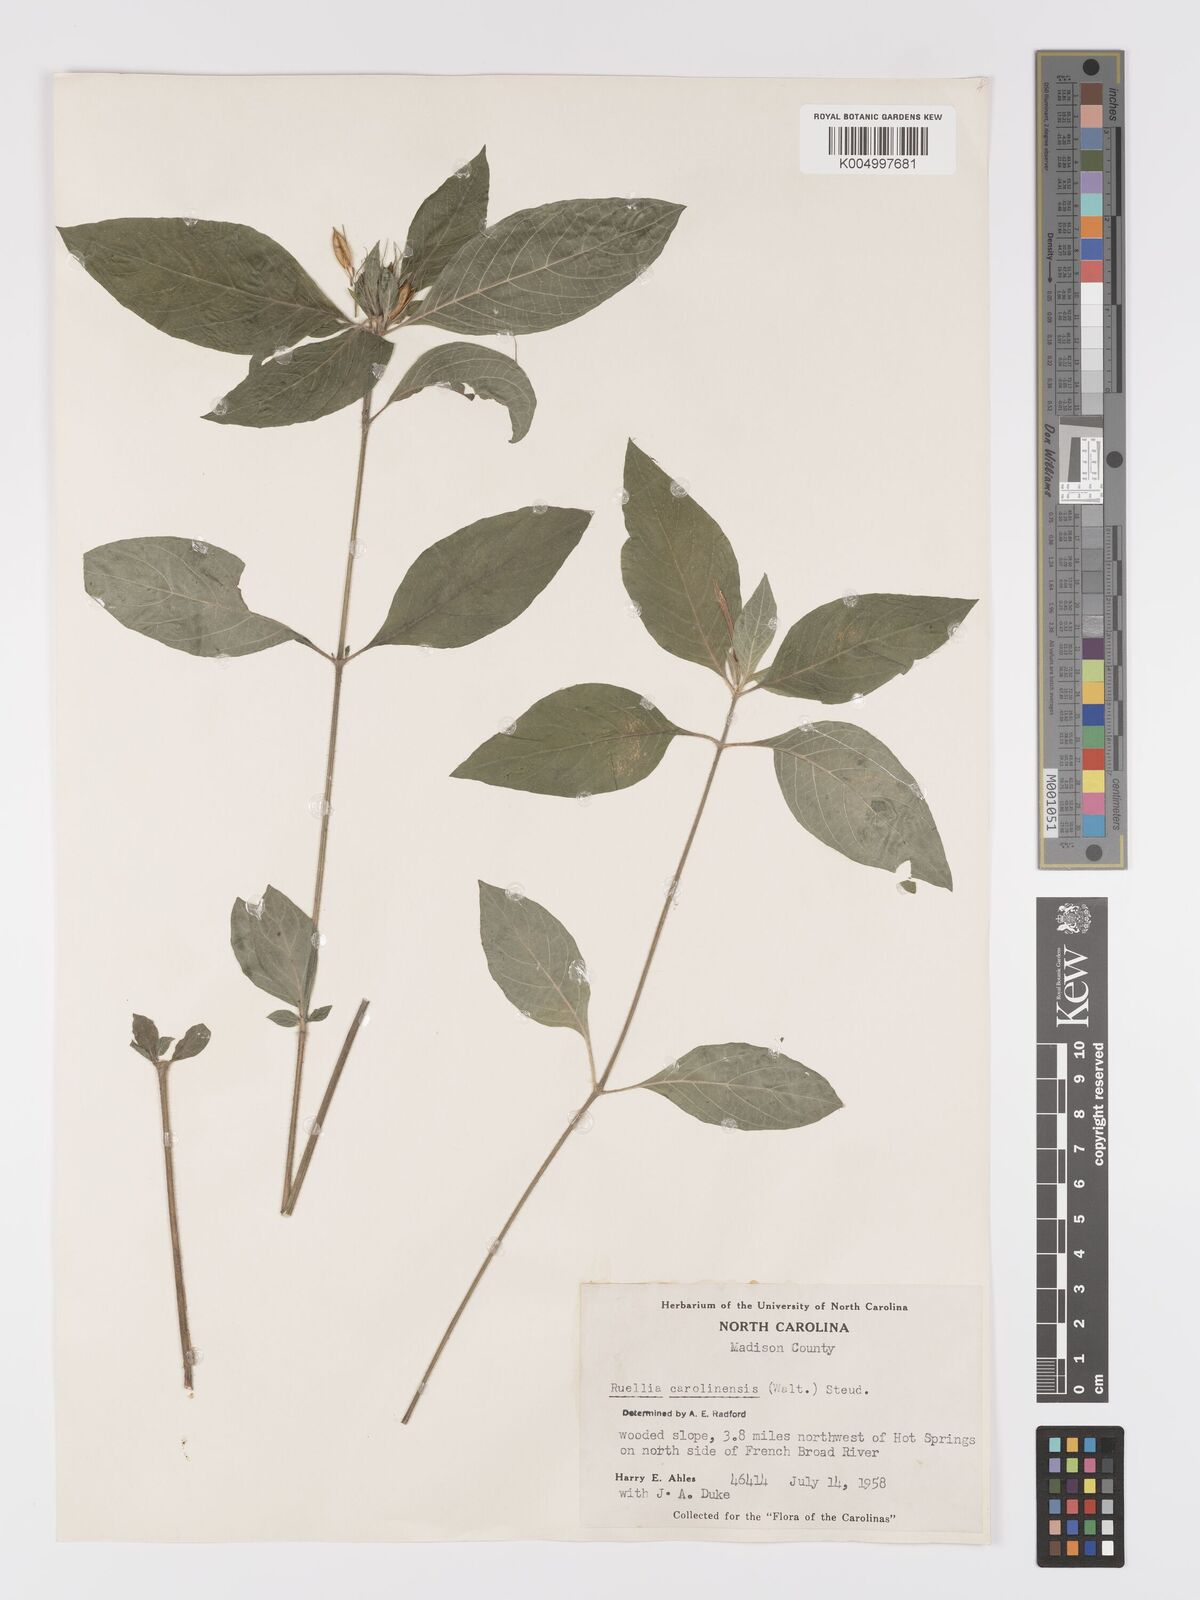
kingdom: Plantae
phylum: Tracheophyta
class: Magnoliopsida
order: Lamiales
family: Acanthaceae
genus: Ruellia
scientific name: Ruellia caroliniensis
